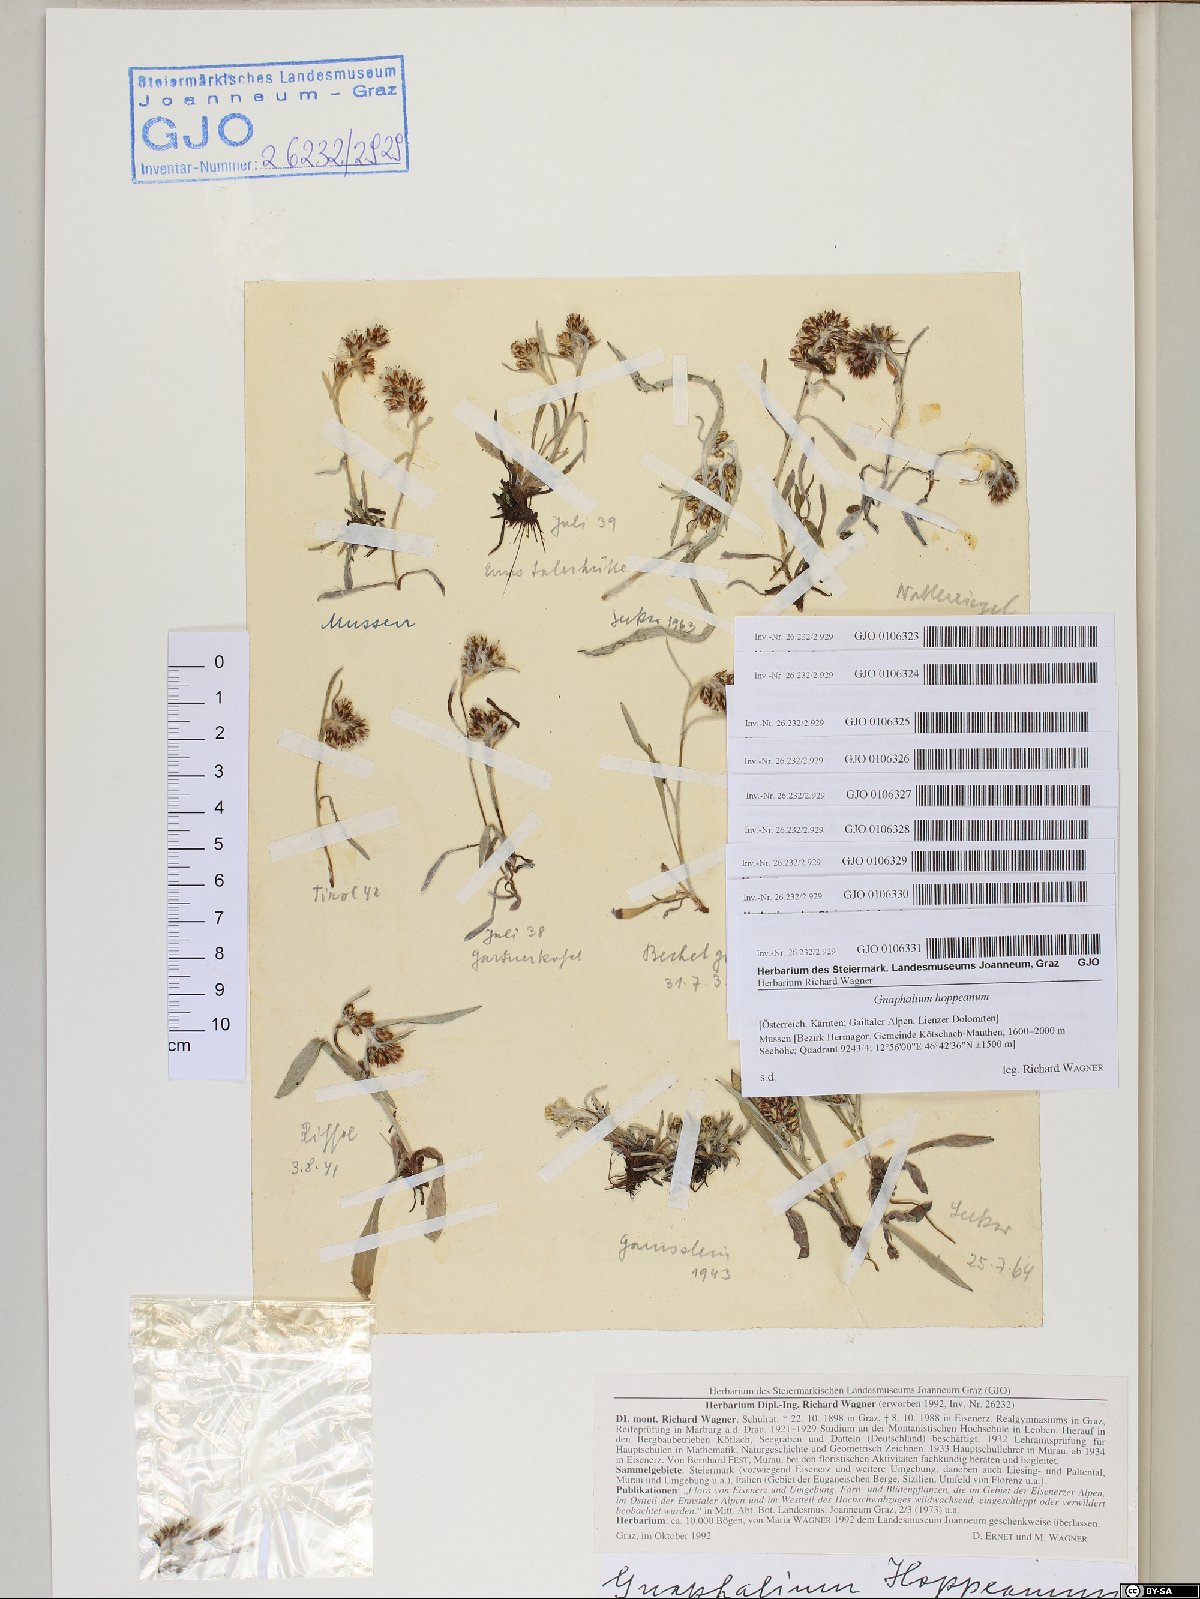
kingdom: Plantae
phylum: Tracheophyta
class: Magnoliopsida
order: Asterales
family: Asteraceae
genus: Omalotheca
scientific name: Omalotheca hoppeana
